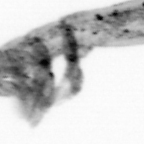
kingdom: Animalia
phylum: Arthropoda
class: Copepoda
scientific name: Copepoda
